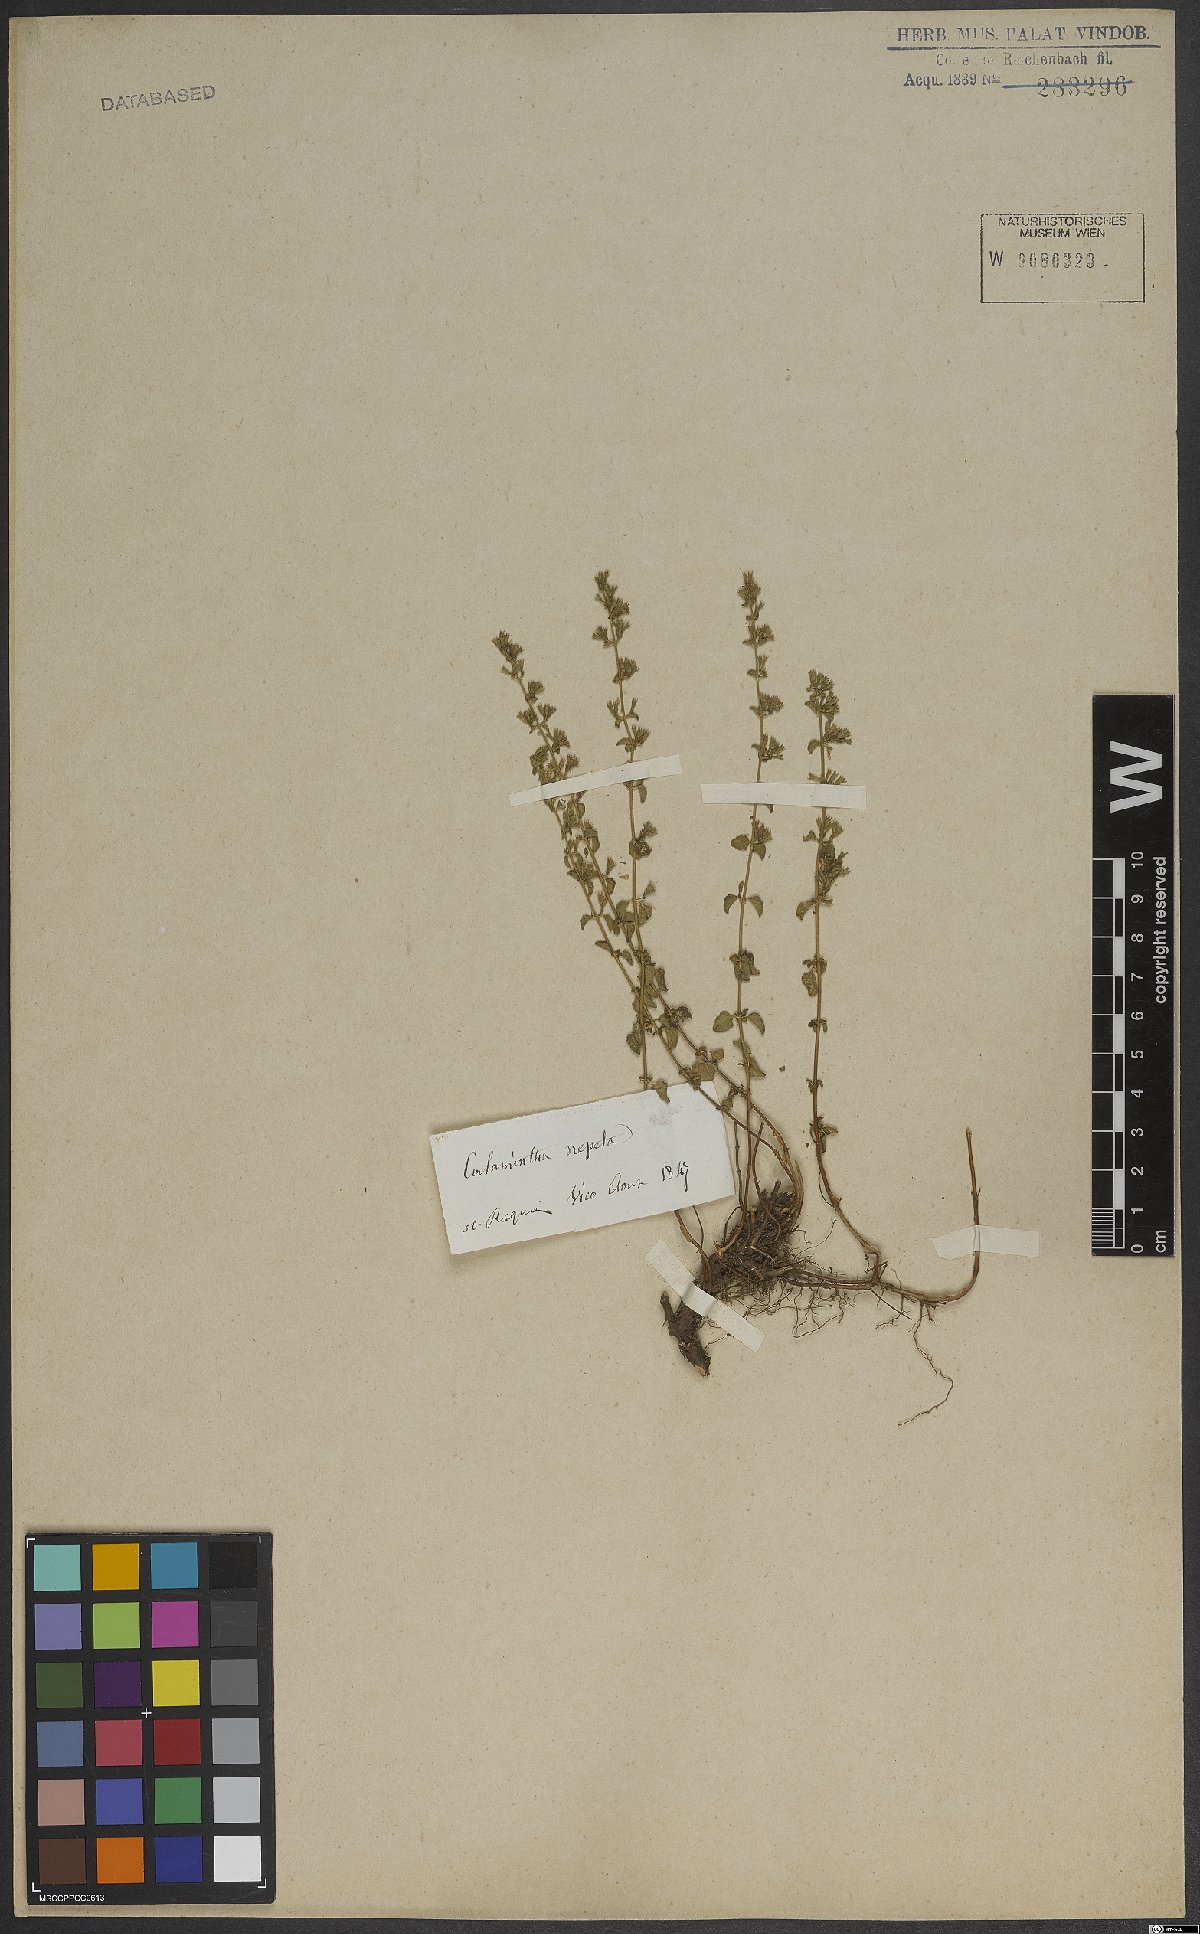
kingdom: Plantae
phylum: Tracheophyta
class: Magnoliopsida
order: Lamiales
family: Lamiaceae
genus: Clinopodium
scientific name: Clinopodium nepeta
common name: Lesser calamint
